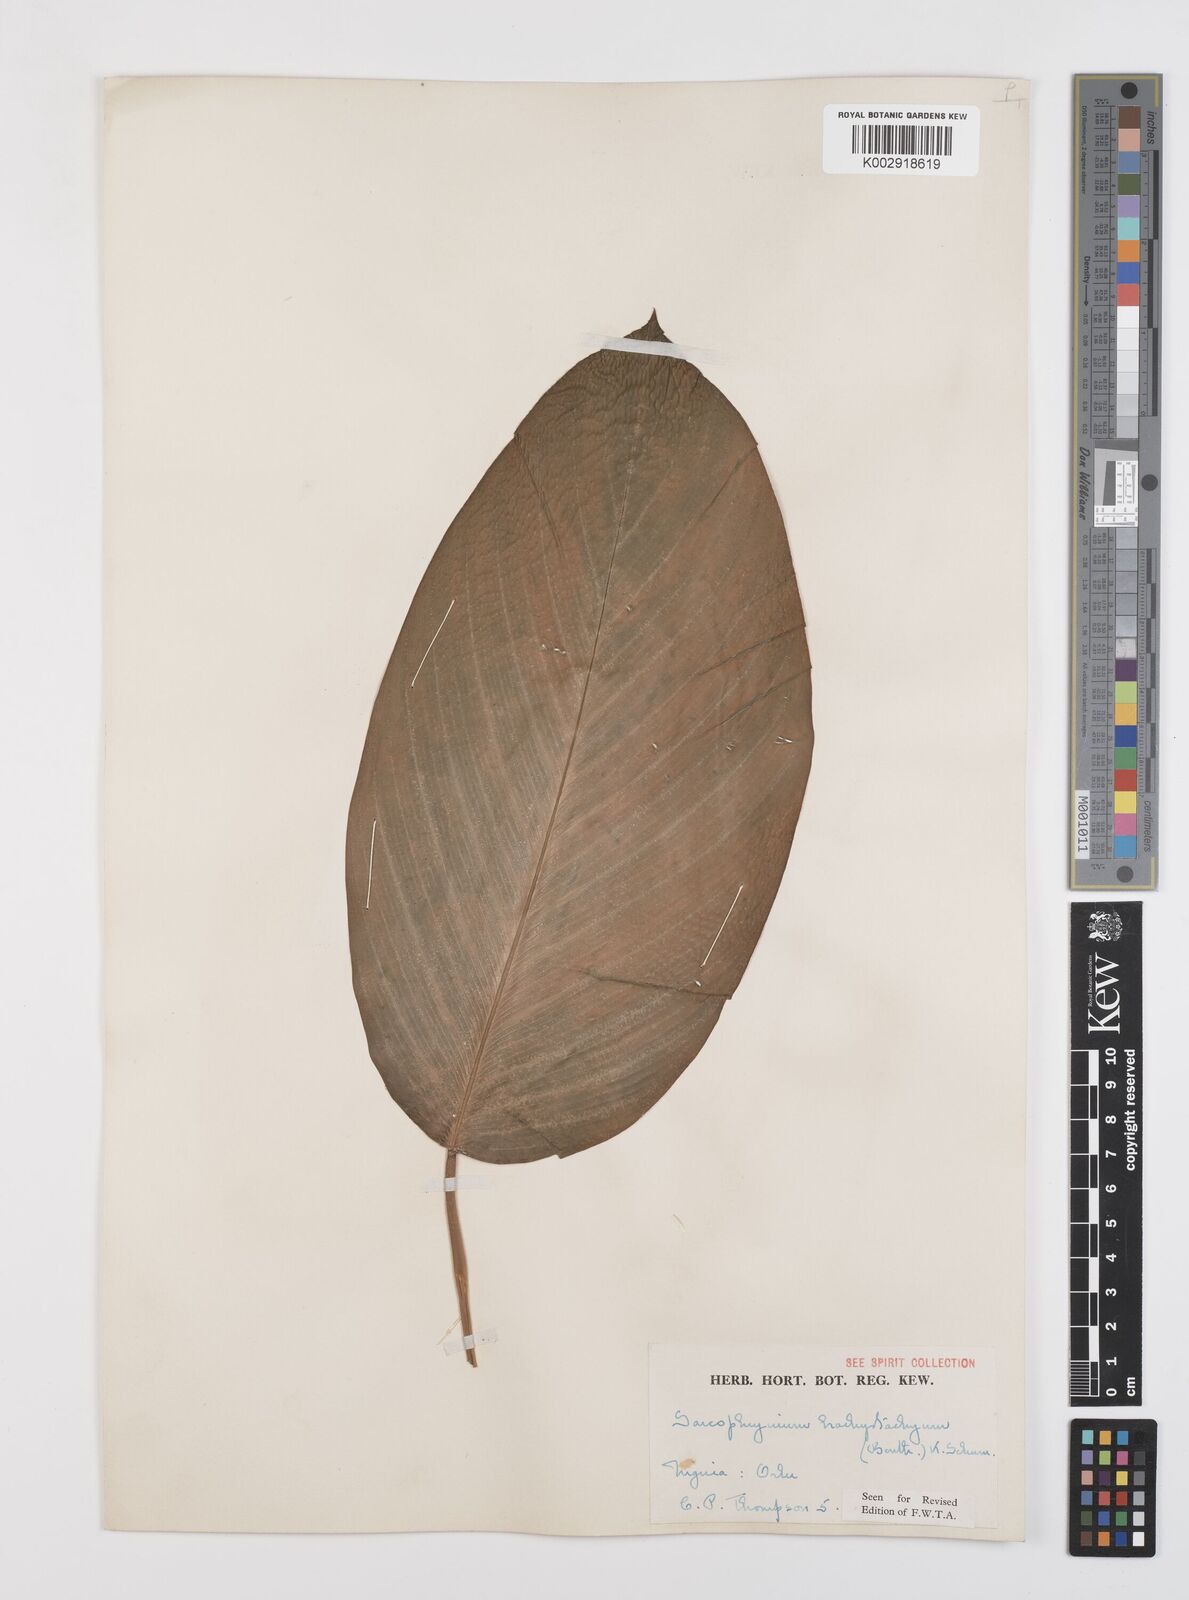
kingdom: Plantae
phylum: Tracheophyta
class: Liliopsida
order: Zingiberales
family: Marantaceae
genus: Sarcophrynium
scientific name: Sarcophrynium brachystachyum
